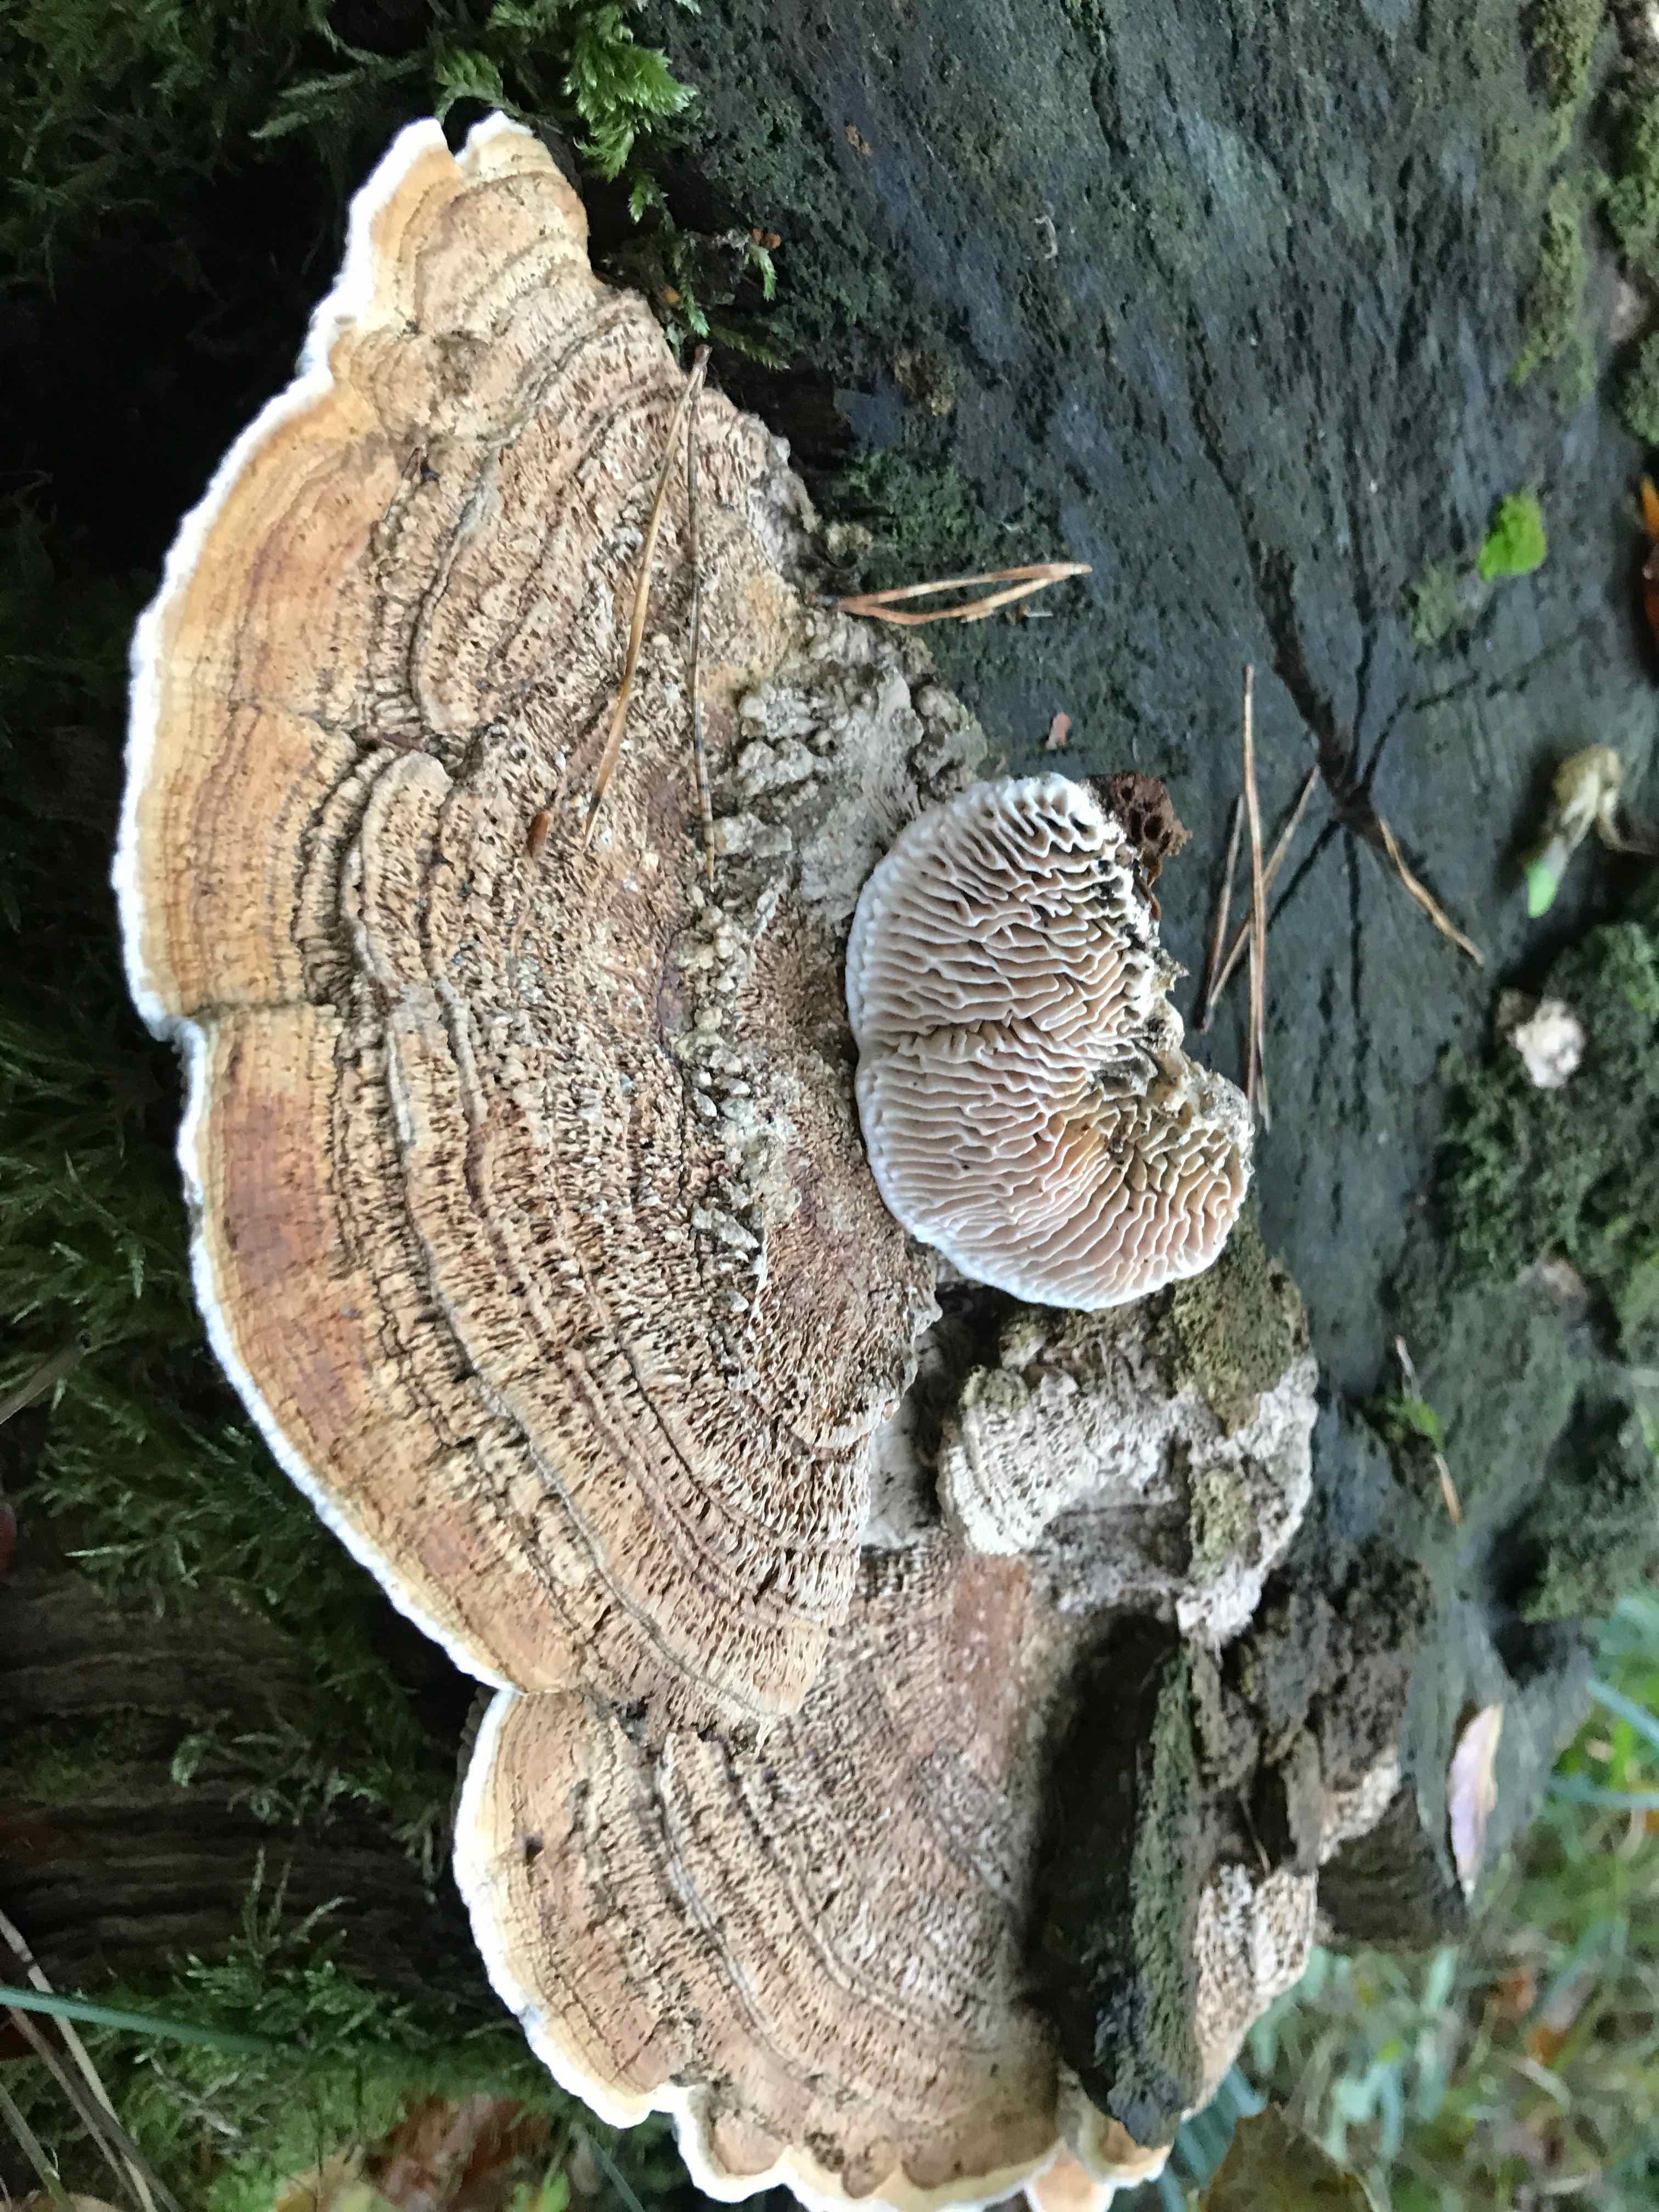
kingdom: Fungi
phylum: Basidiomycota
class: Agaricomycetes
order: Polyporales
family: Fomitopsidaceae
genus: Daedalea
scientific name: Daedalea quercina
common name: ege-labyrintsvamp
